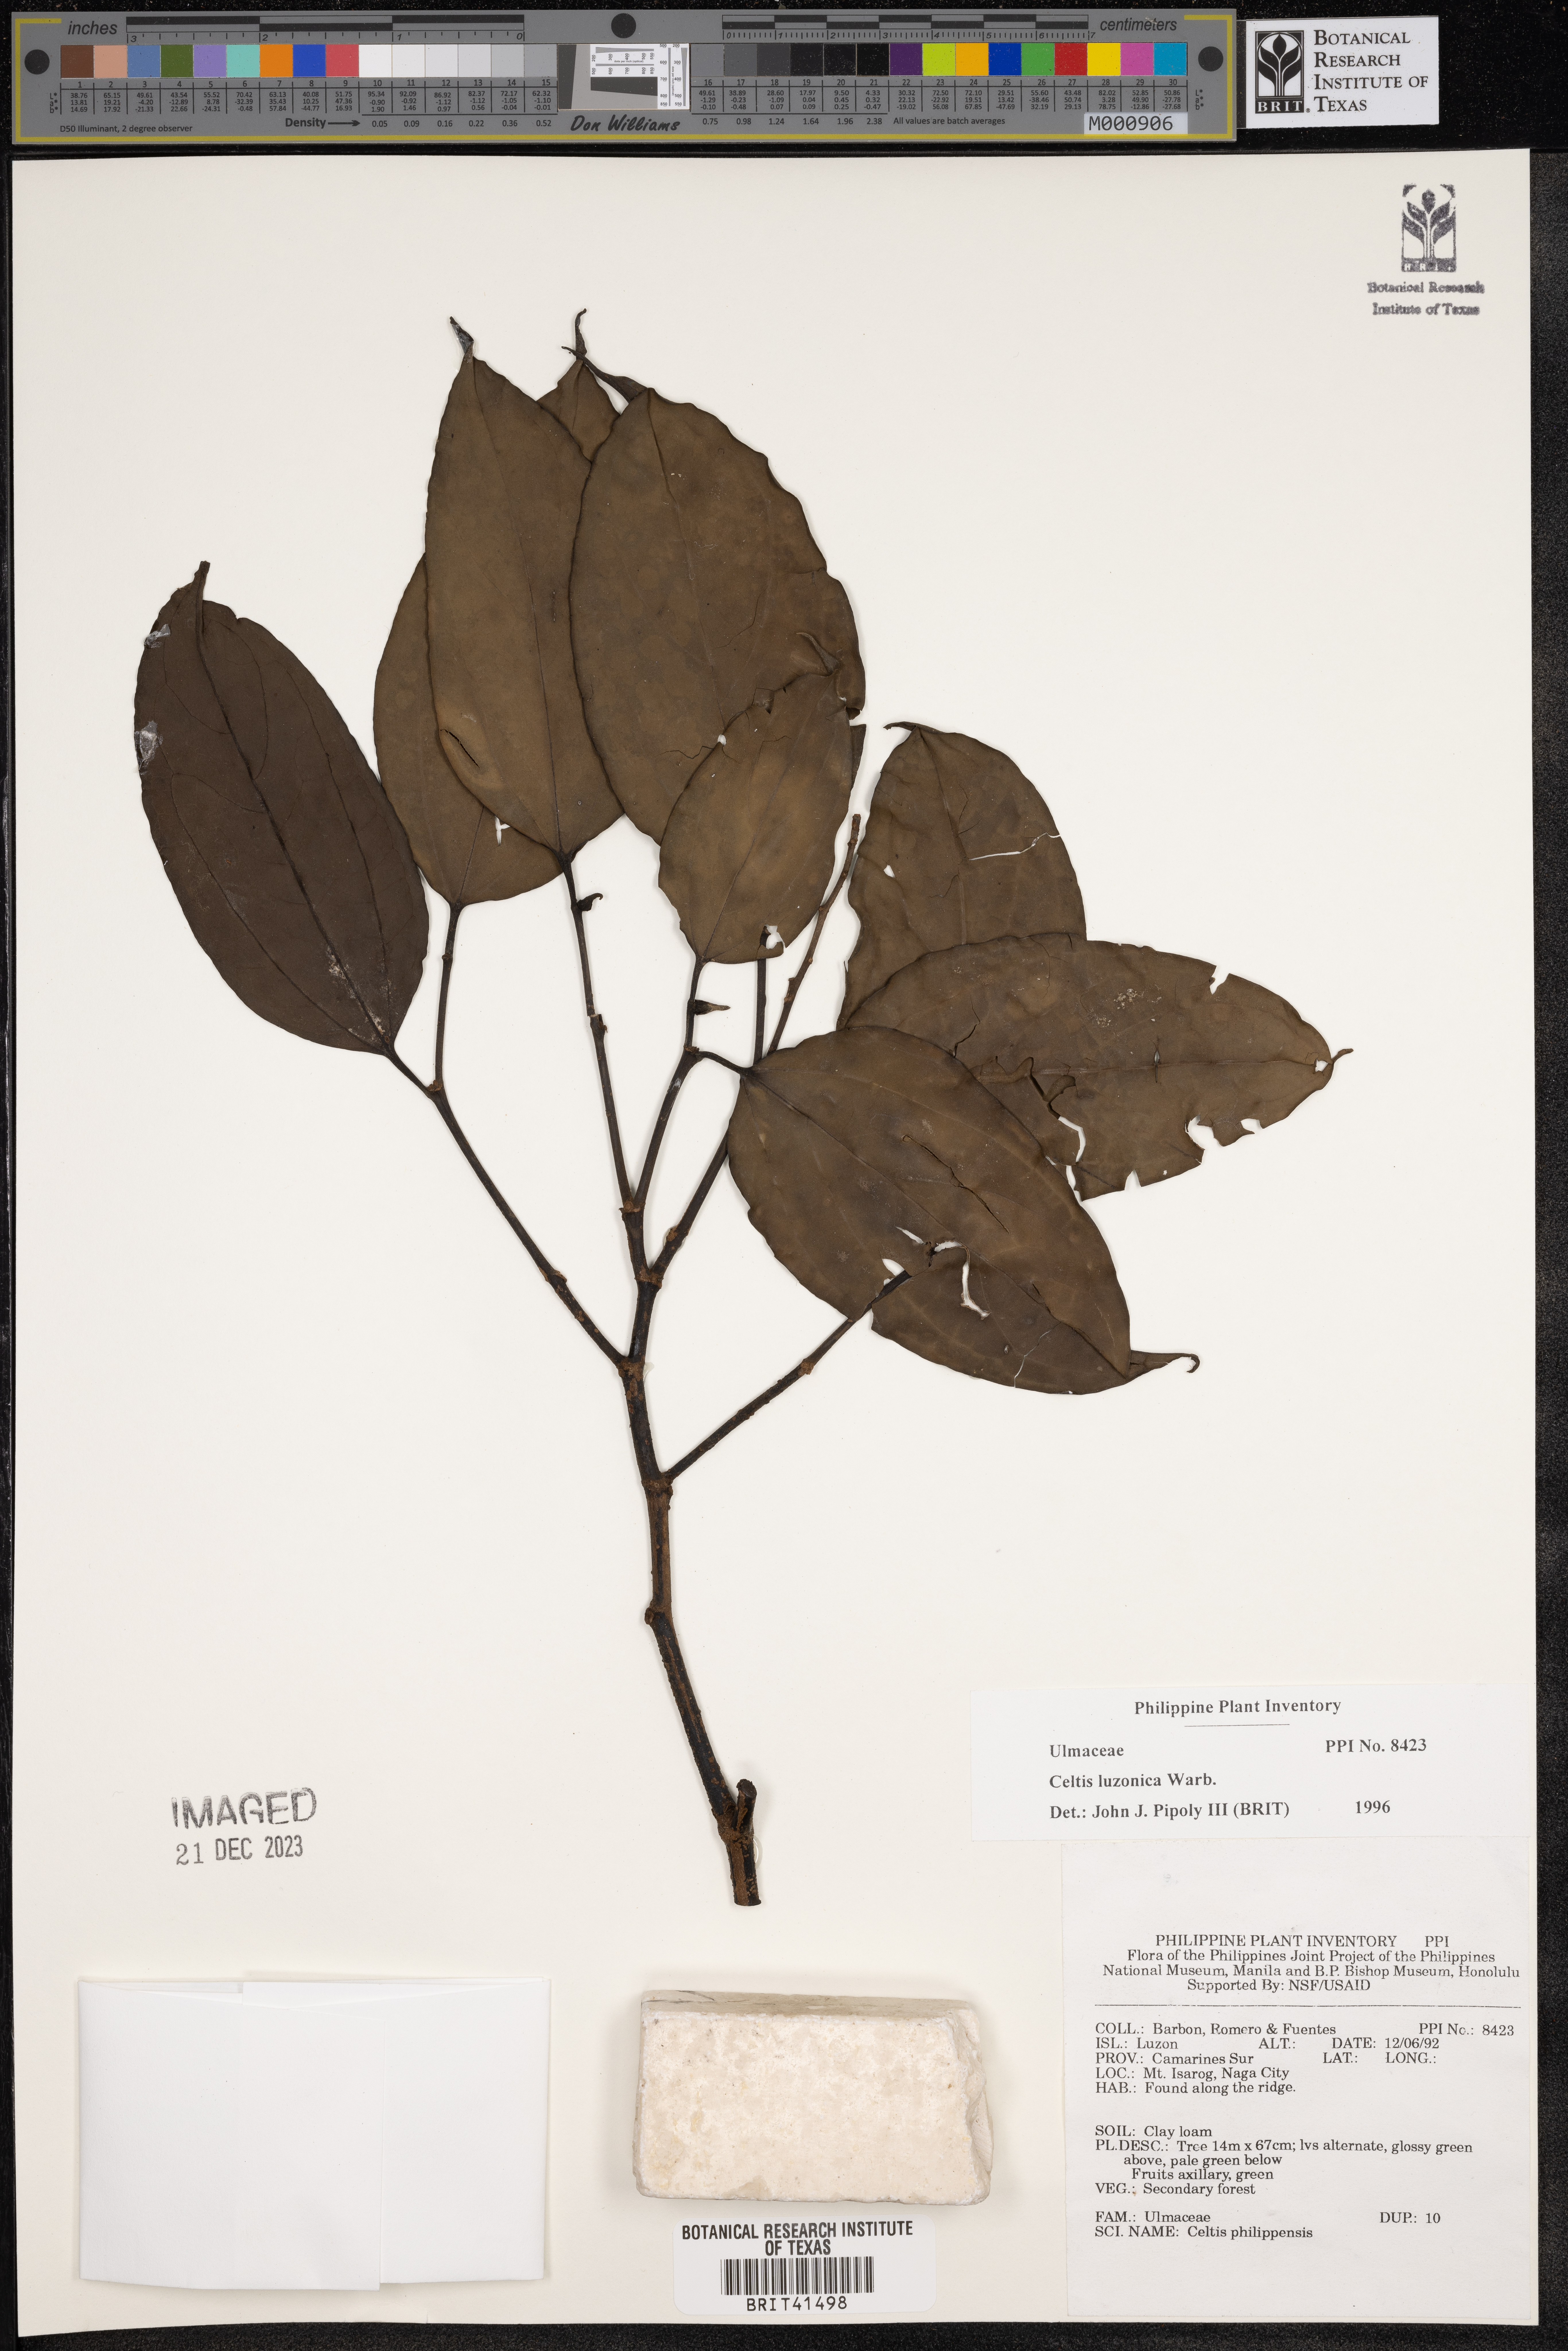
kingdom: Plantae
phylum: Tracheophyta
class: Magnoliopsida
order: Rosales
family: Cannabaceae
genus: Celtis
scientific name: Celtis luzonica
